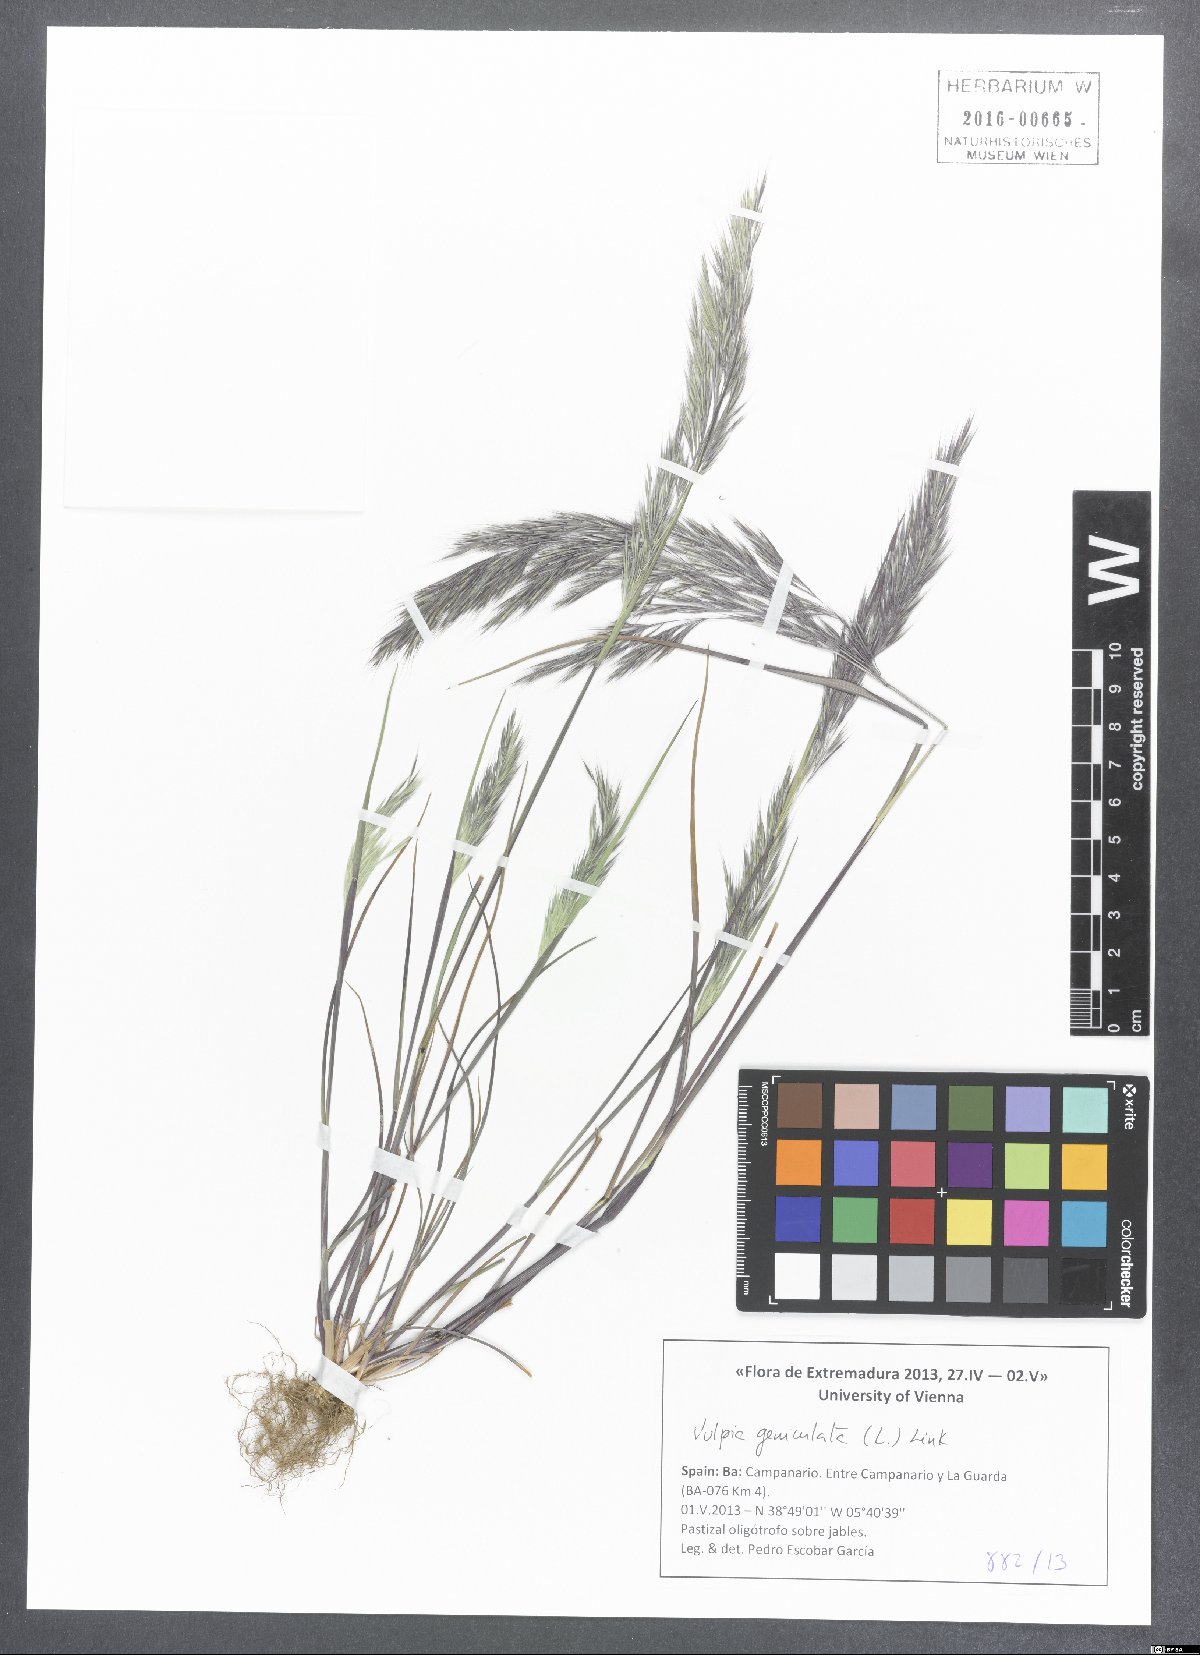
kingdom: Plantae
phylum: Tracheophyta
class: Liliopsida
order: Poales
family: Poaceae
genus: Festuca
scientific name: Festuca geniculata
